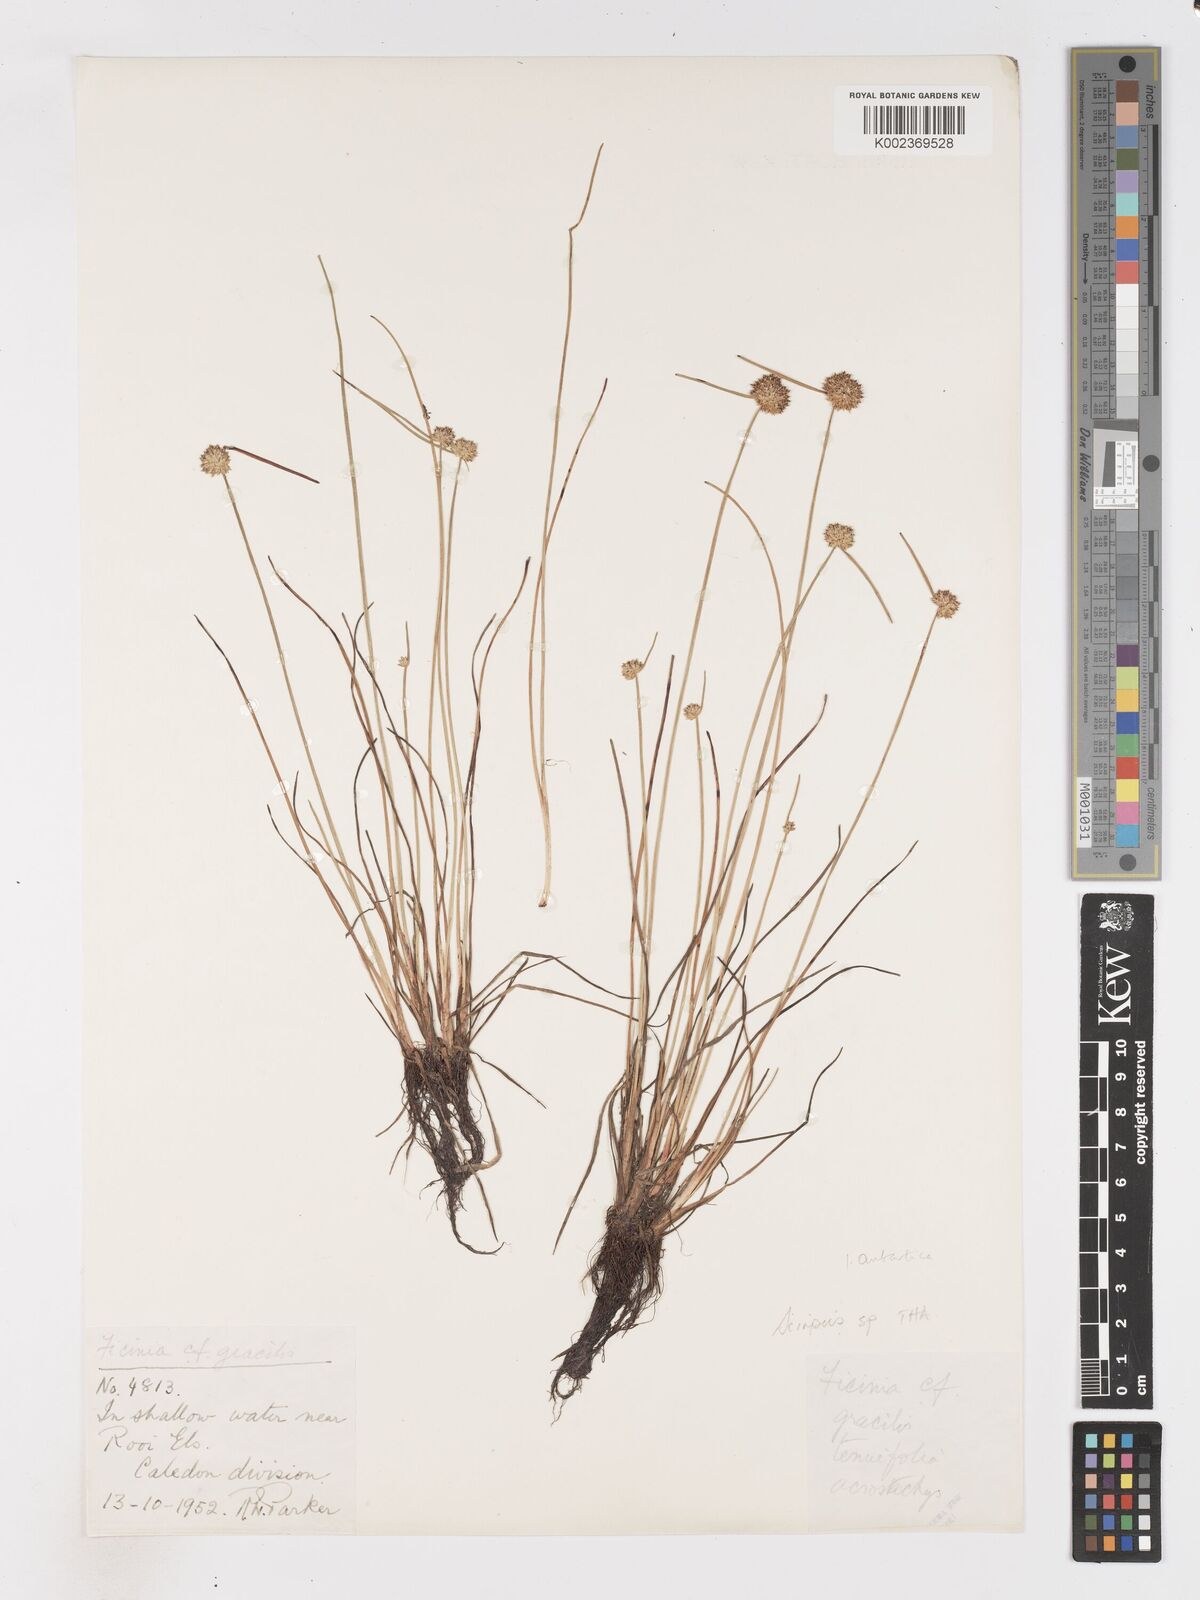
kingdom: Plantae
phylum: Tracheophyta
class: Liliopsida
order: Poales
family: Cyperaceae
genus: Isolepis
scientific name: Isolepis antarctica
